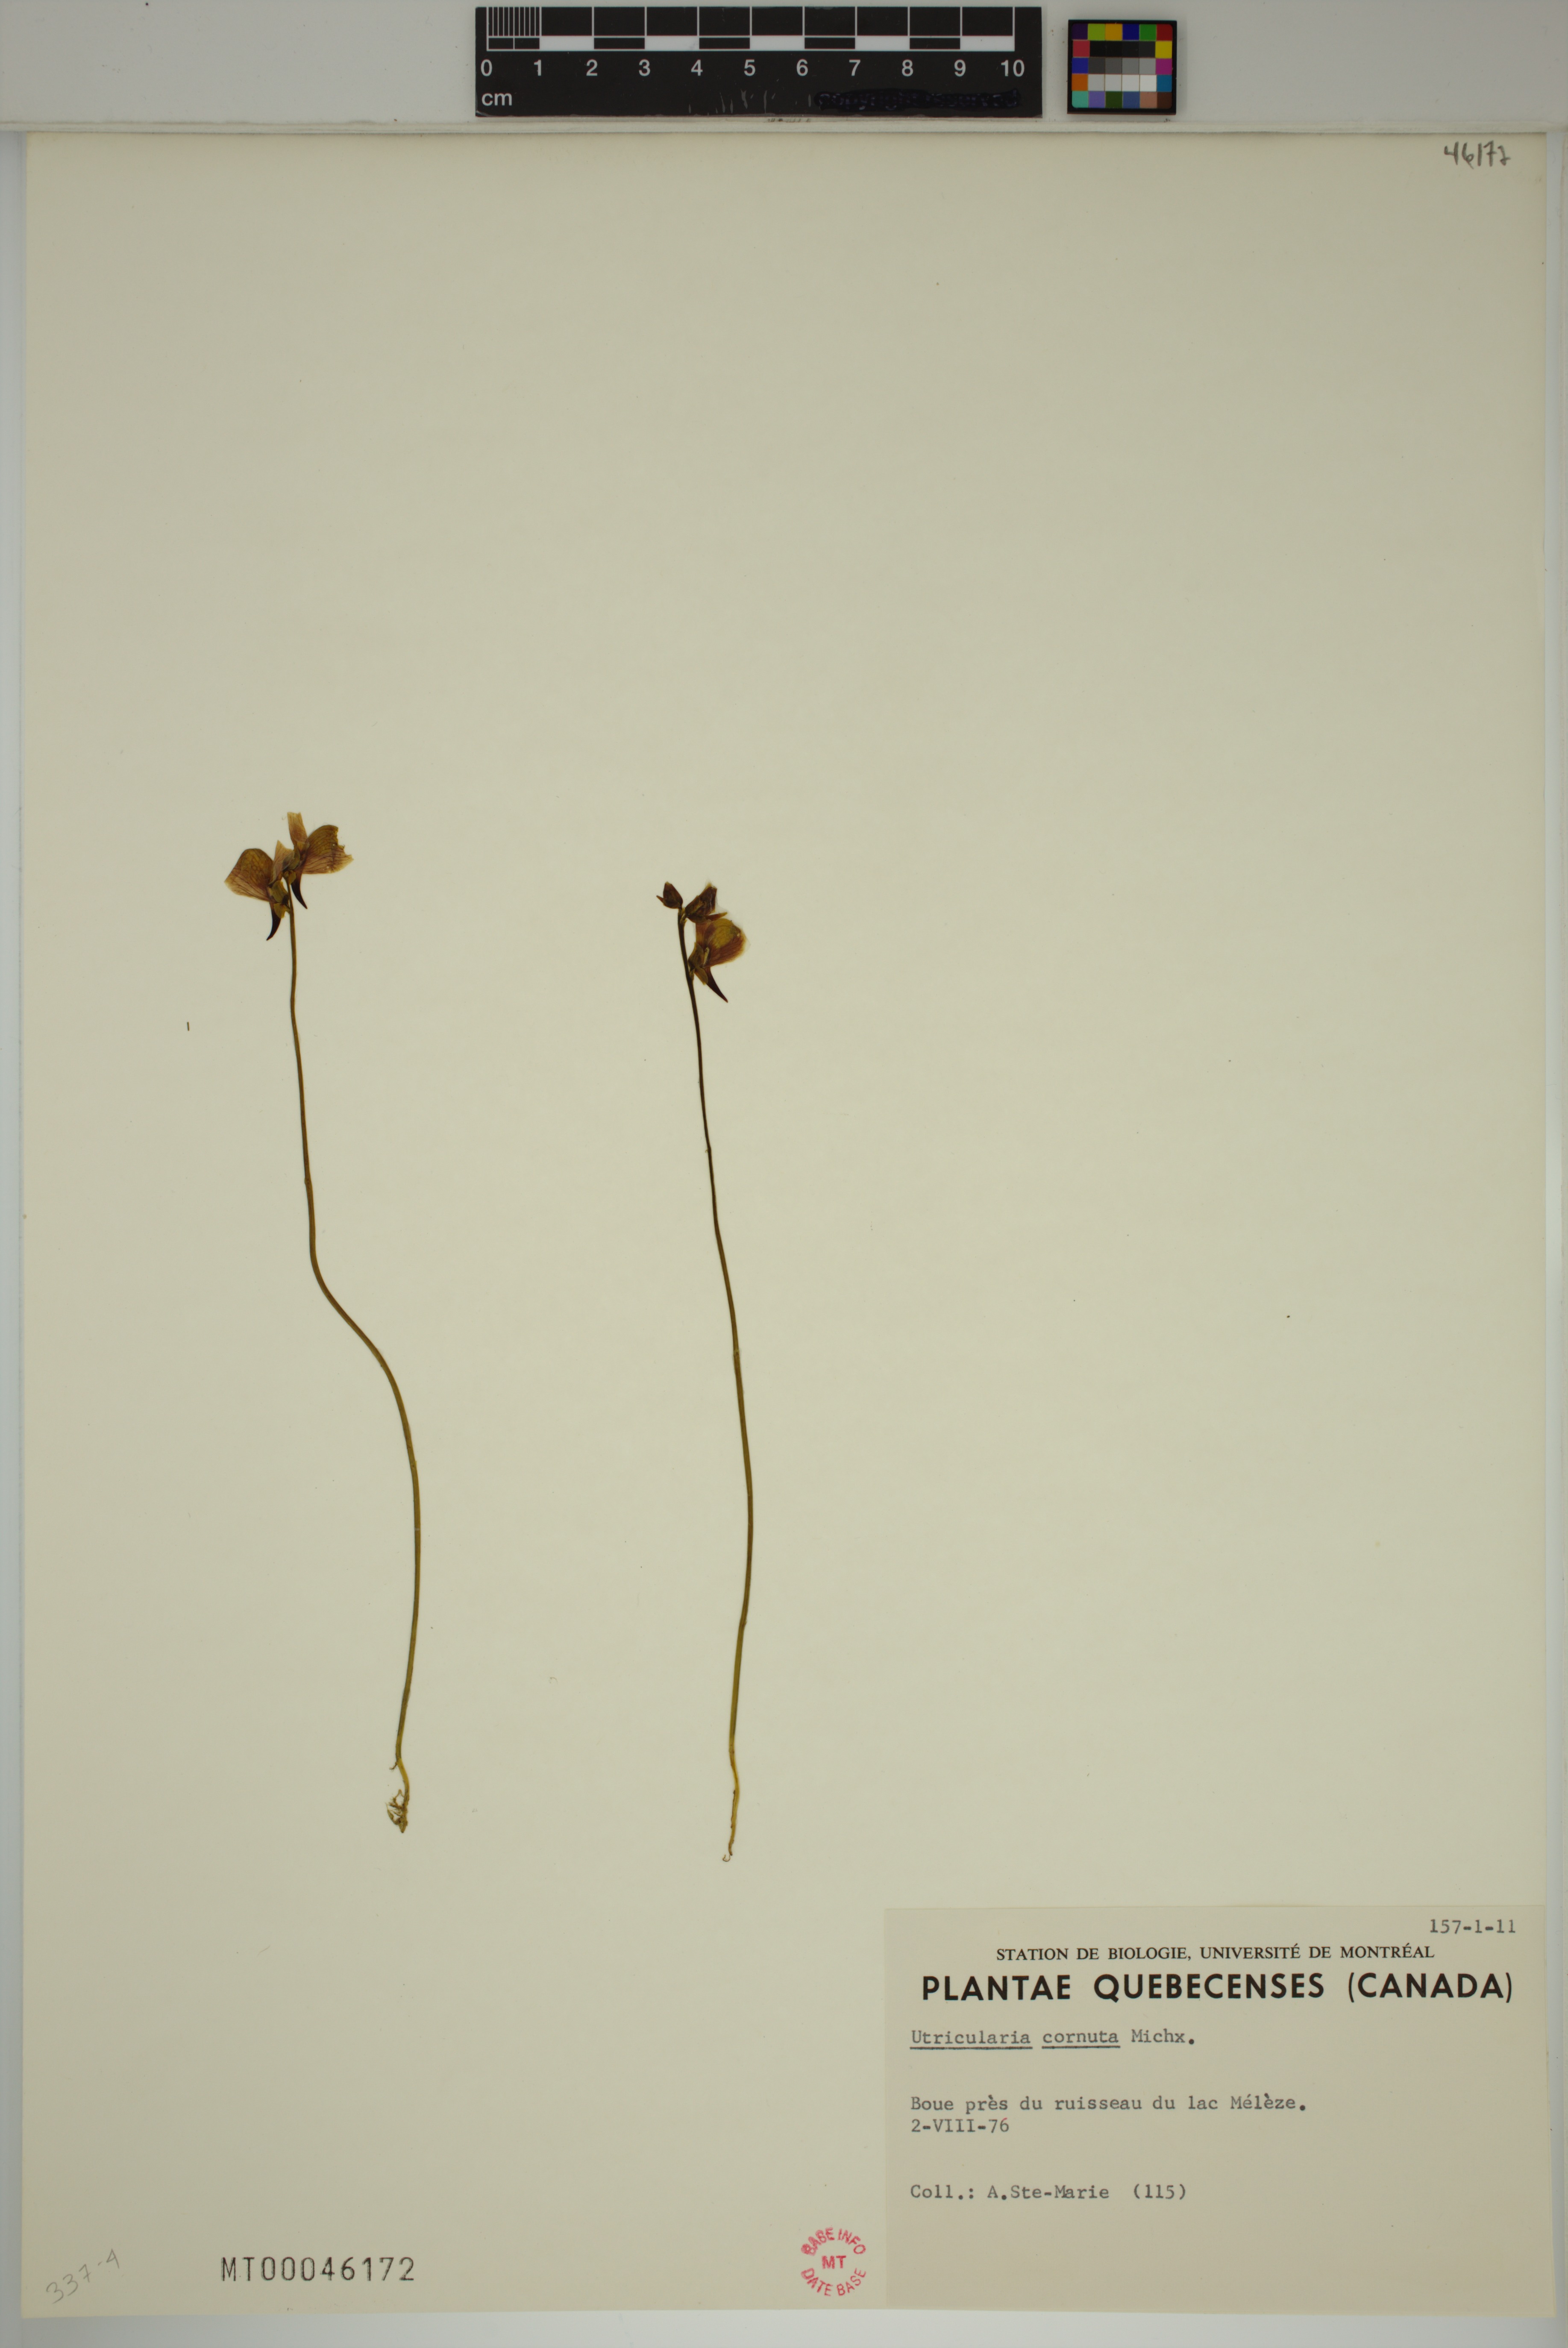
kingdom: Plantae
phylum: Tracheophyta
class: Magnoliopsida
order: Lamiales
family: Lentibulariaceae
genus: Utricularia
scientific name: Utricularia cornuta
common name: Horned bladderwort
